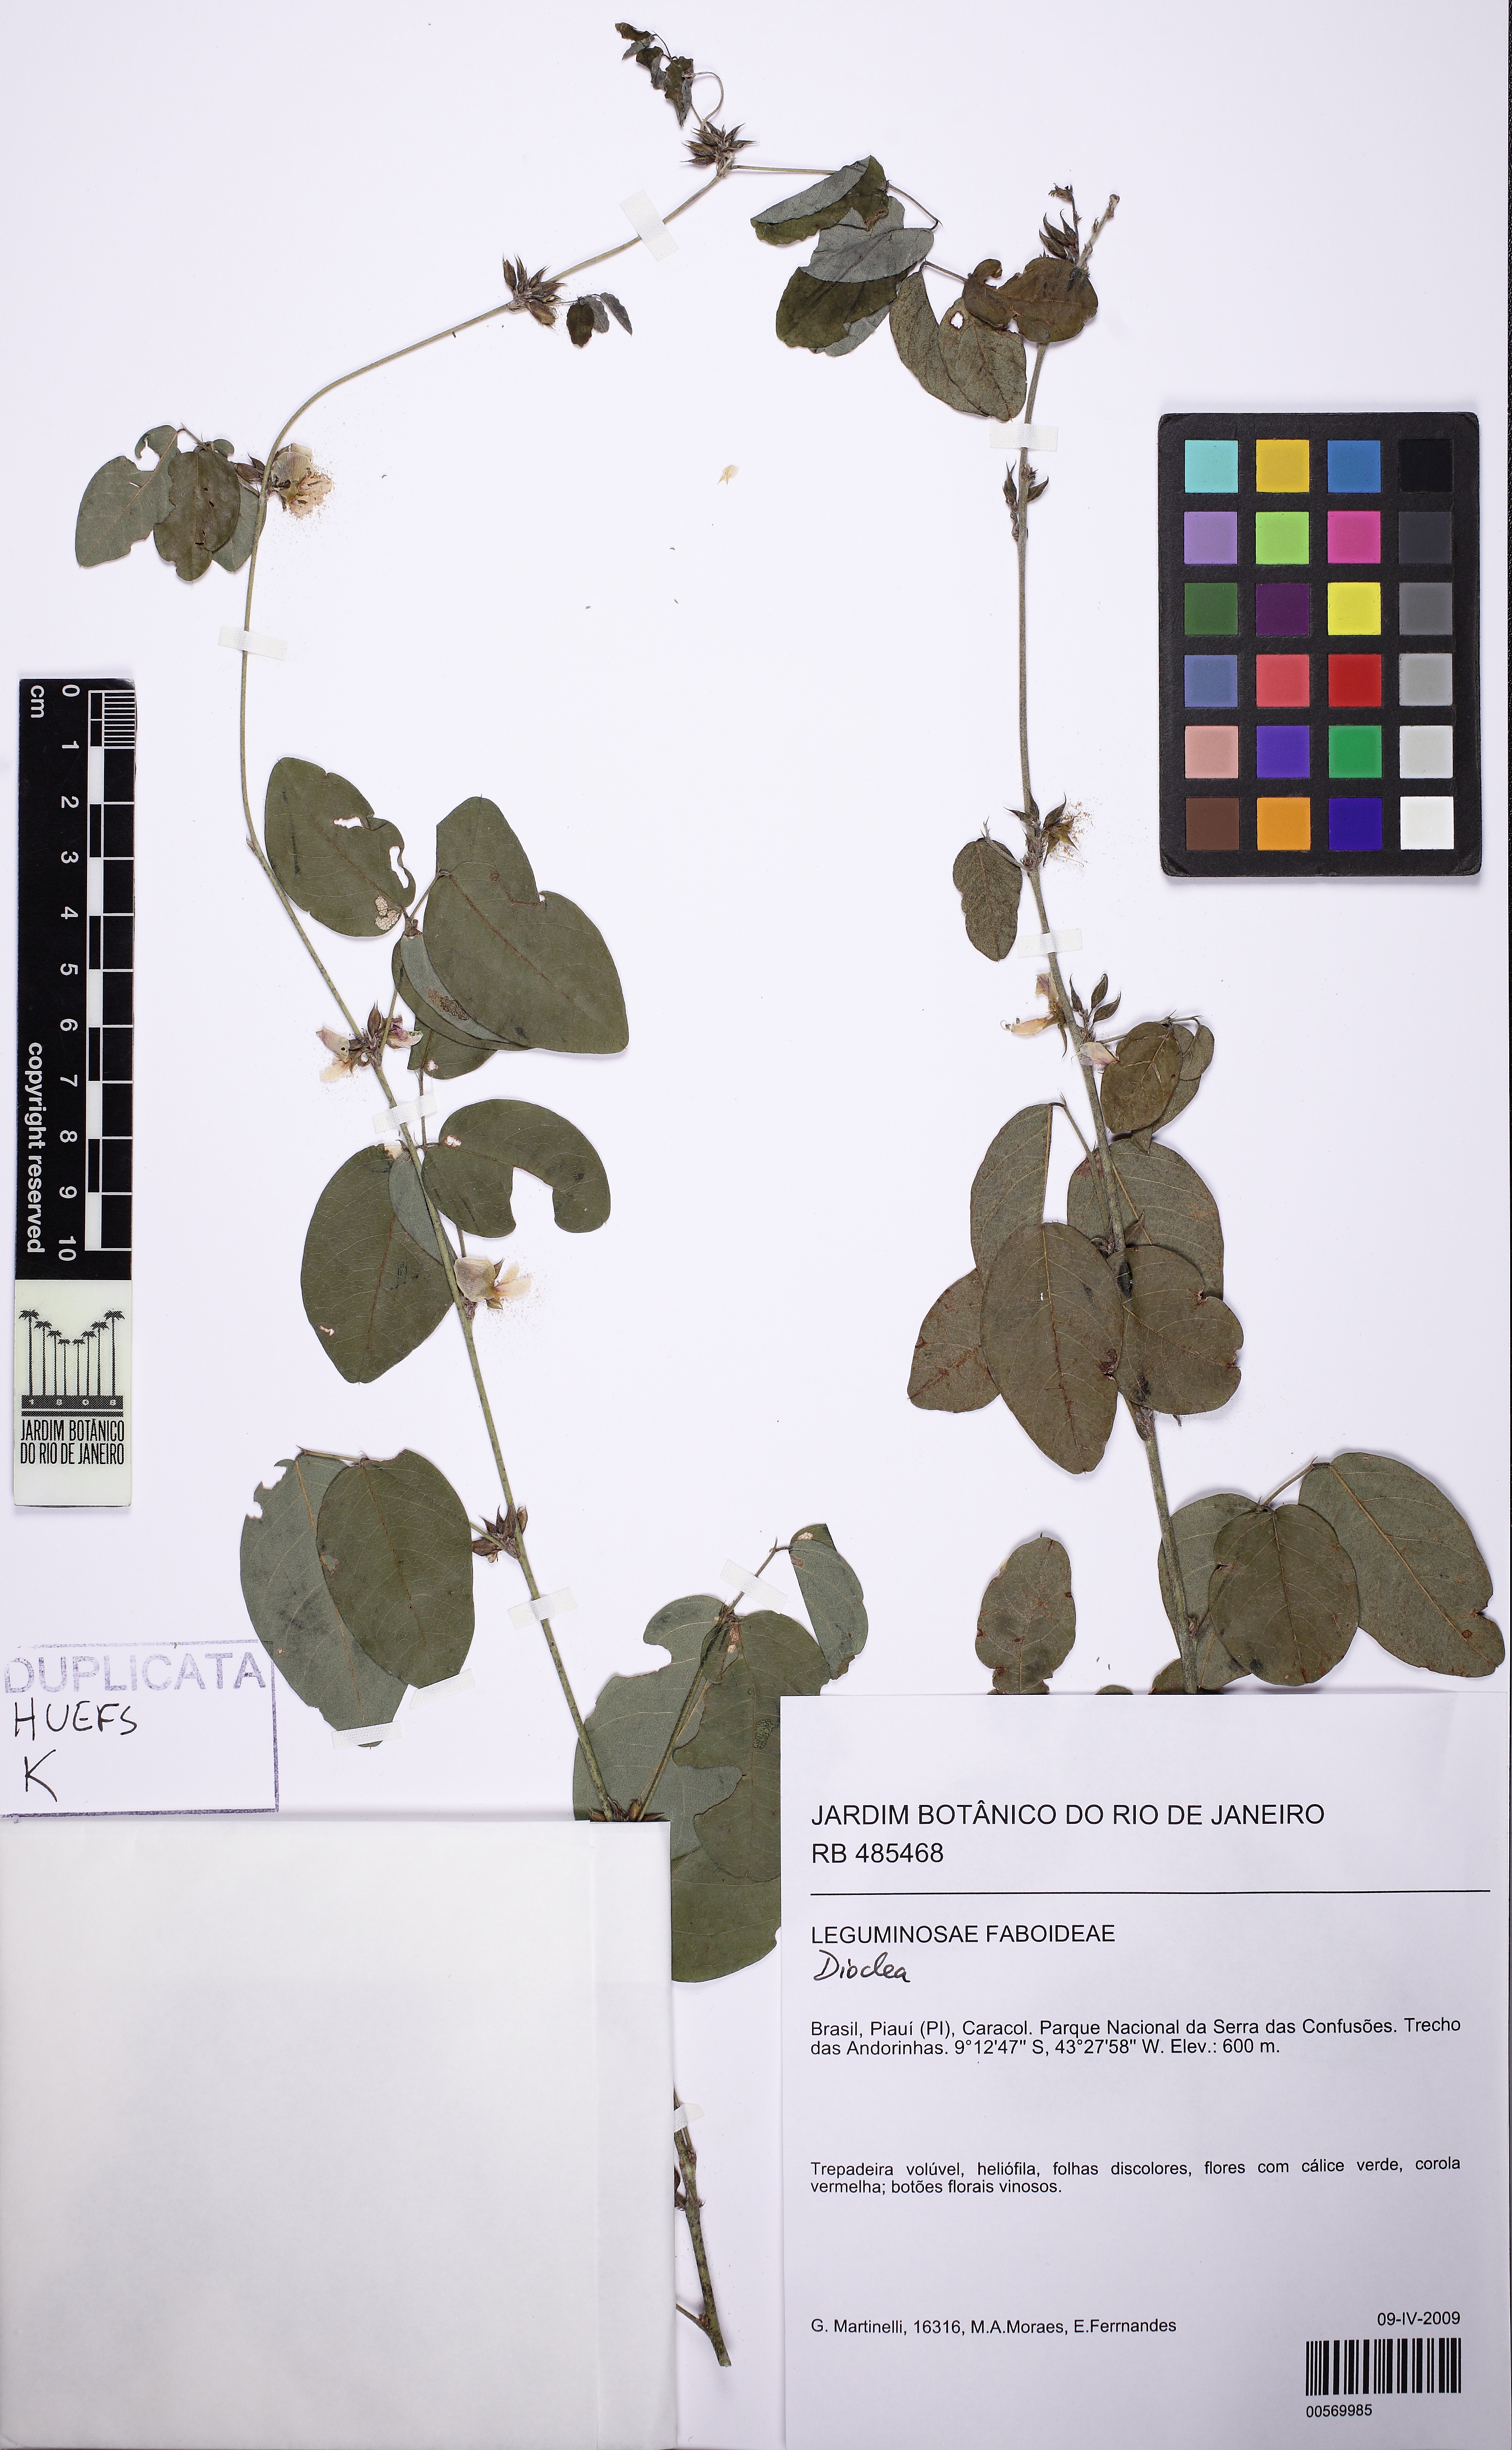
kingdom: Plantae
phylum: Tracheophyta
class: Magnoliopsida
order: Fabales
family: Fabaceae
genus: Galactia
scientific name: Galactia jussiaeana
